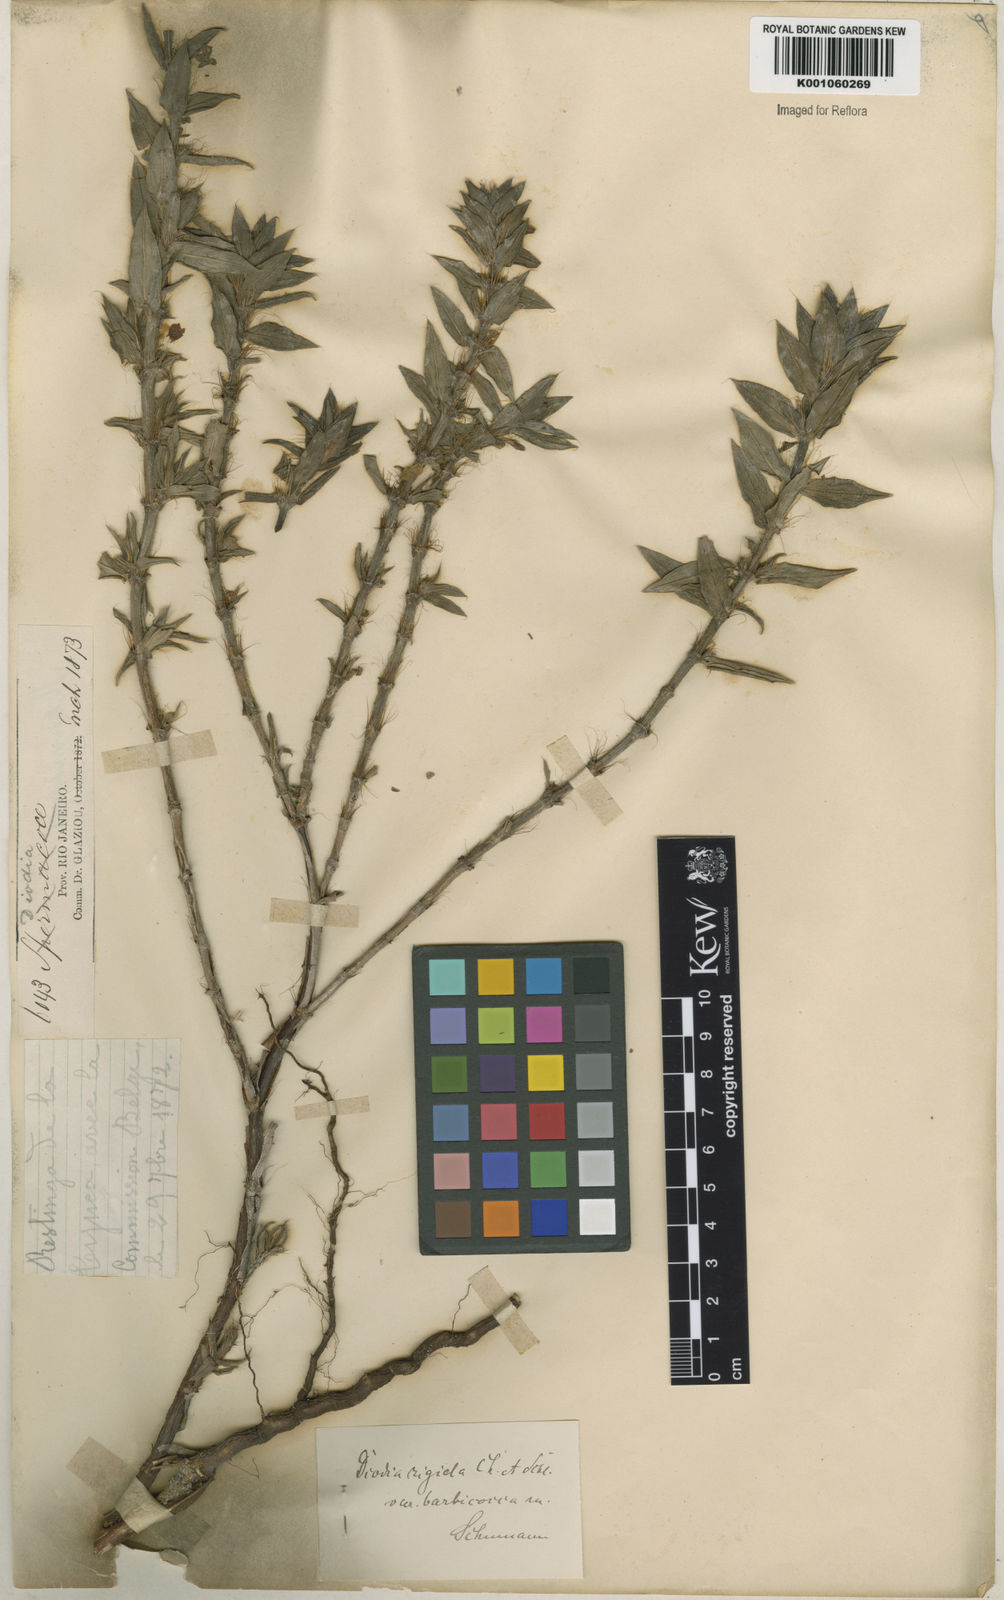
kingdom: Plantae
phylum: Tracheophyta
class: Magnoliopsida
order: Gentianales
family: Rubiaceae
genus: Hexasepalum
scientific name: Hexasepalum apiculatum
